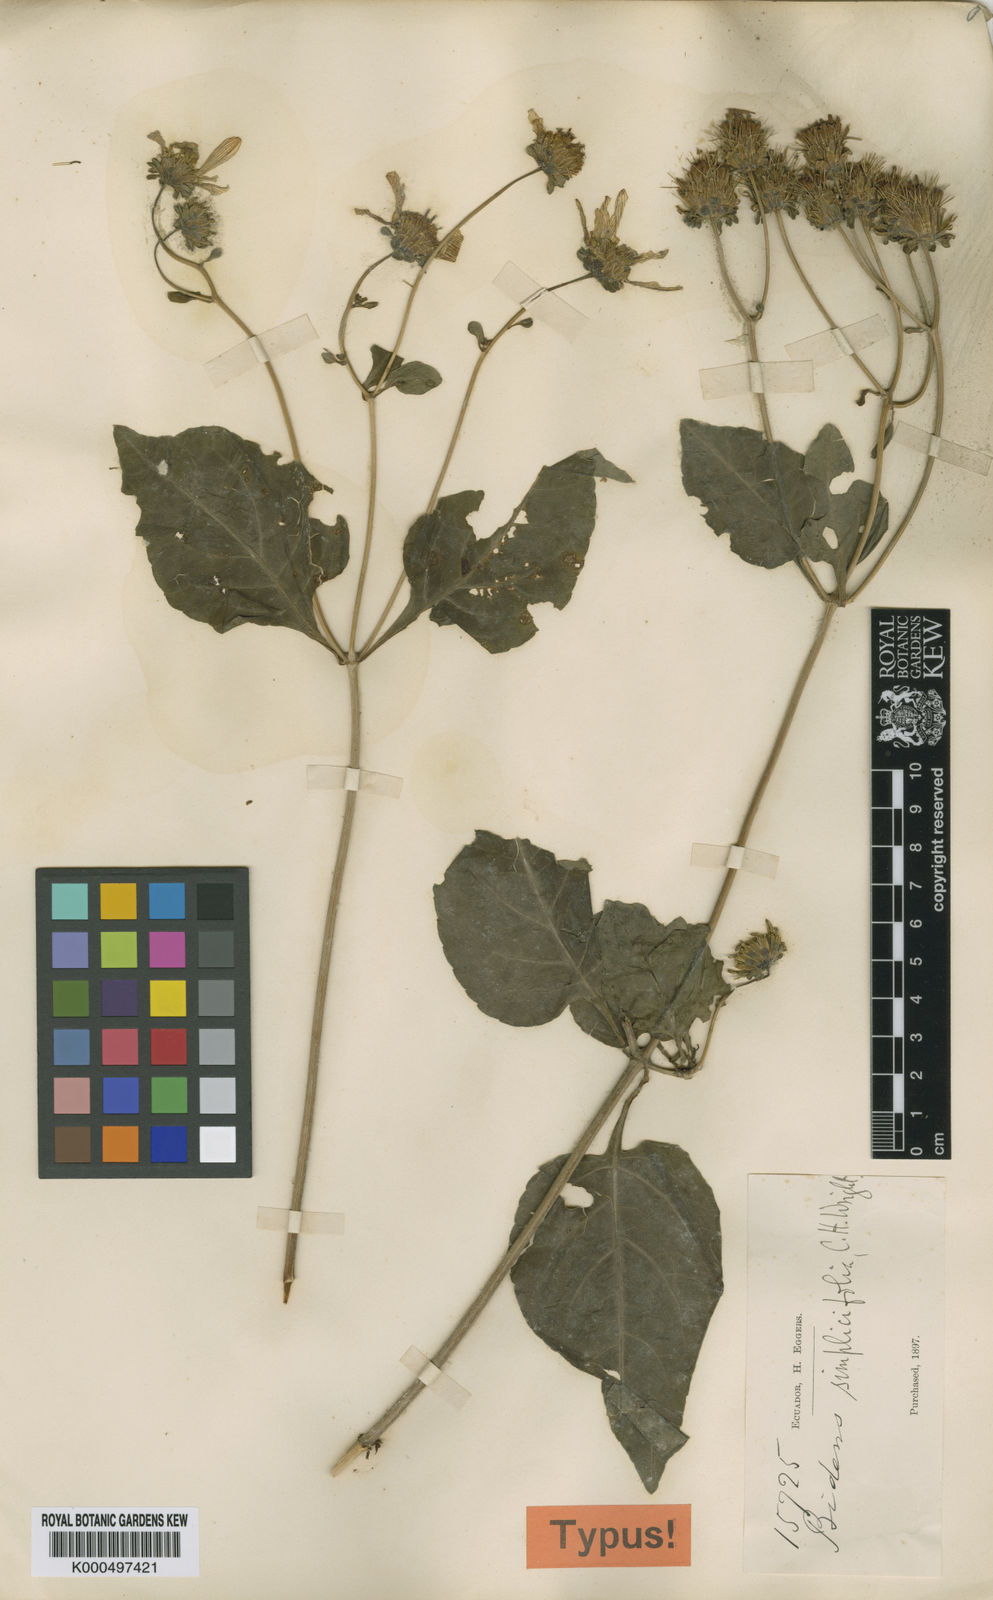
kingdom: Plantae
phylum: Tracheophyta
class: Magnoliopsida
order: Asterales
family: Asteraceae
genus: Bidens
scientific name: Bidens simplicifolia
